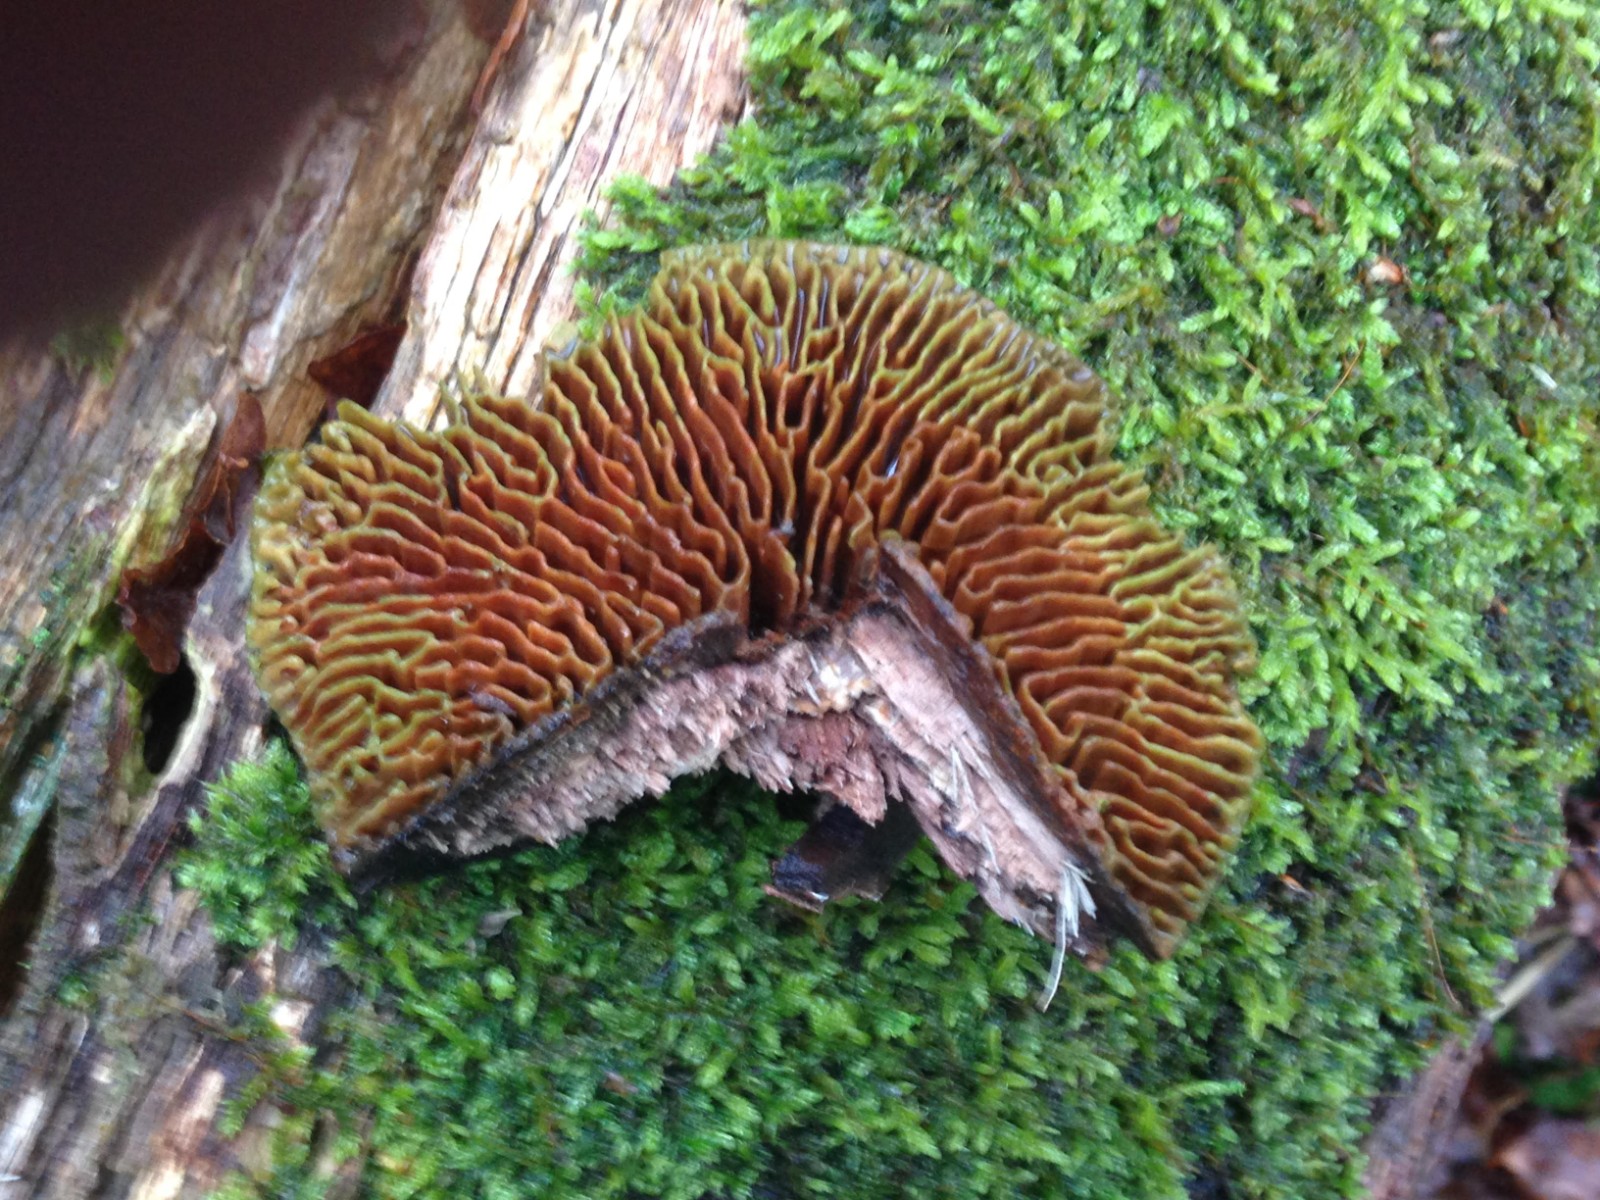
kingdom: Fungi
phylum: Basidiomycota
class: Agaricomycetes
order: Polyporales
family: Fomitopsidaceae
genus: Daedalea
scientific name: Daedalea quercina
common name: ege-labyrintsvamp
